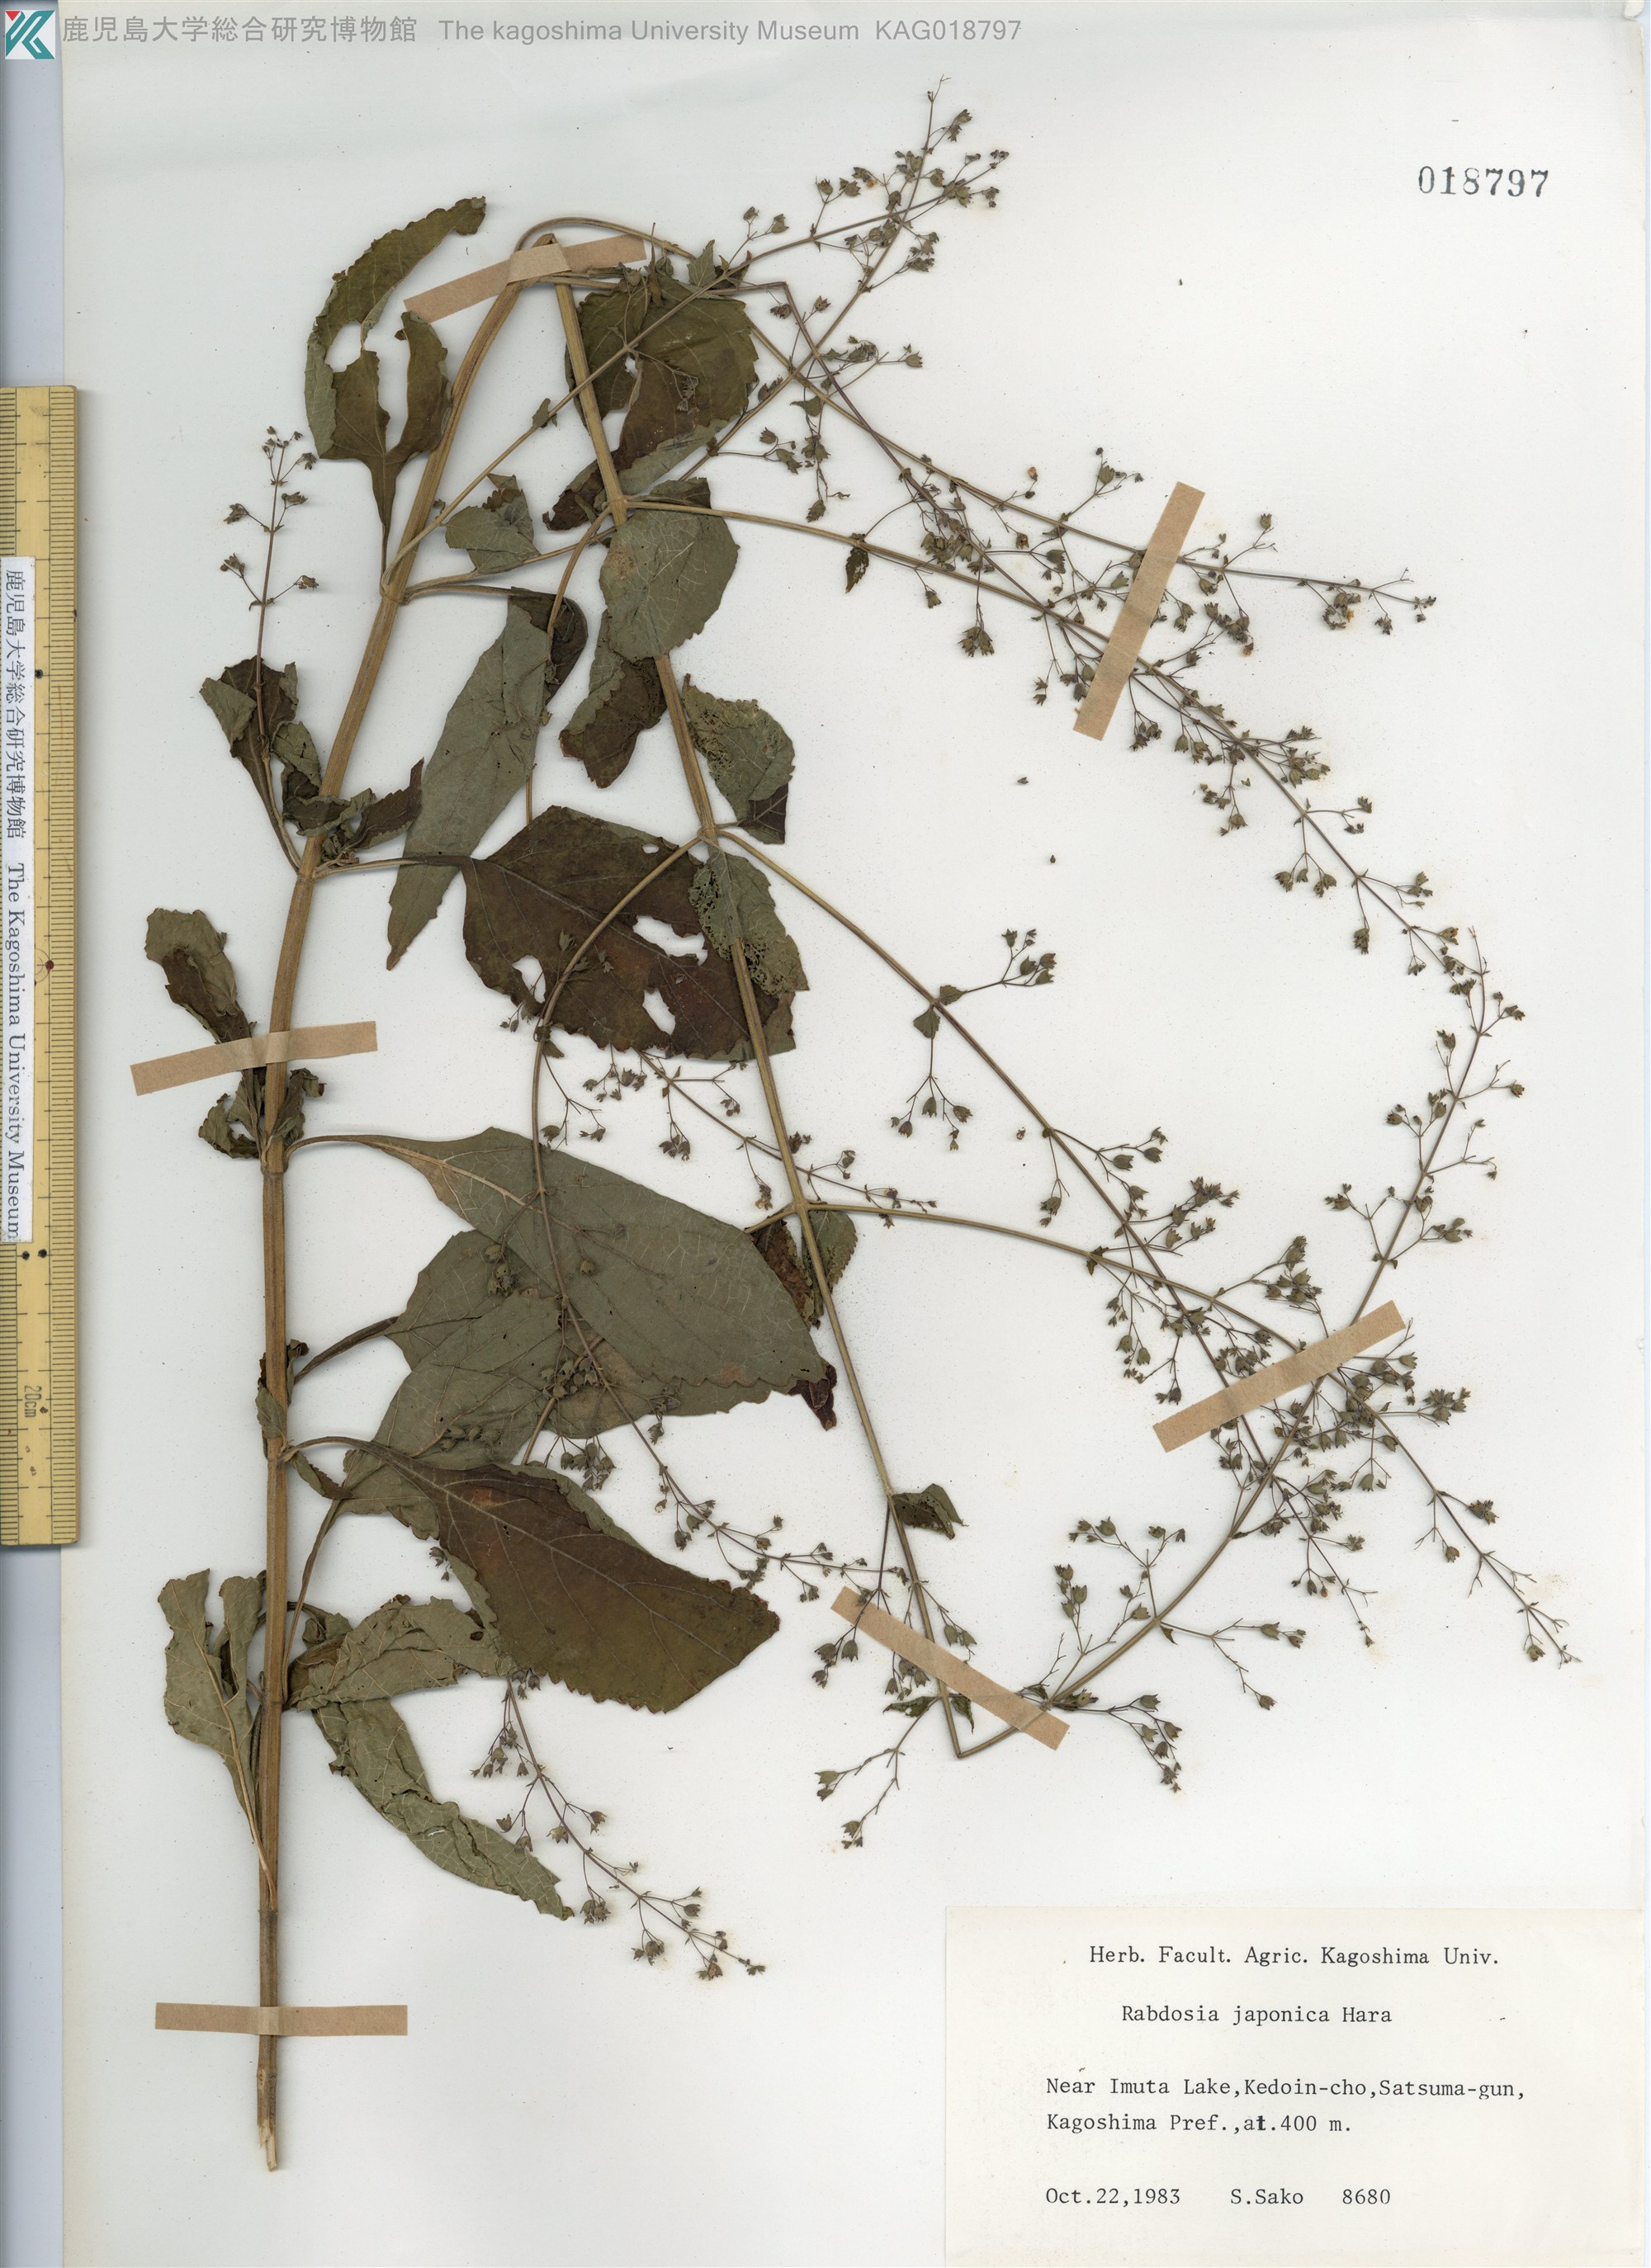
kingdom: Plantae
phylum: Tracheophyta
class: Magnoliopsida
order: Lamiales
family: Lamiaceae
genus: Isodon
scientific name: Isodon japonicus
